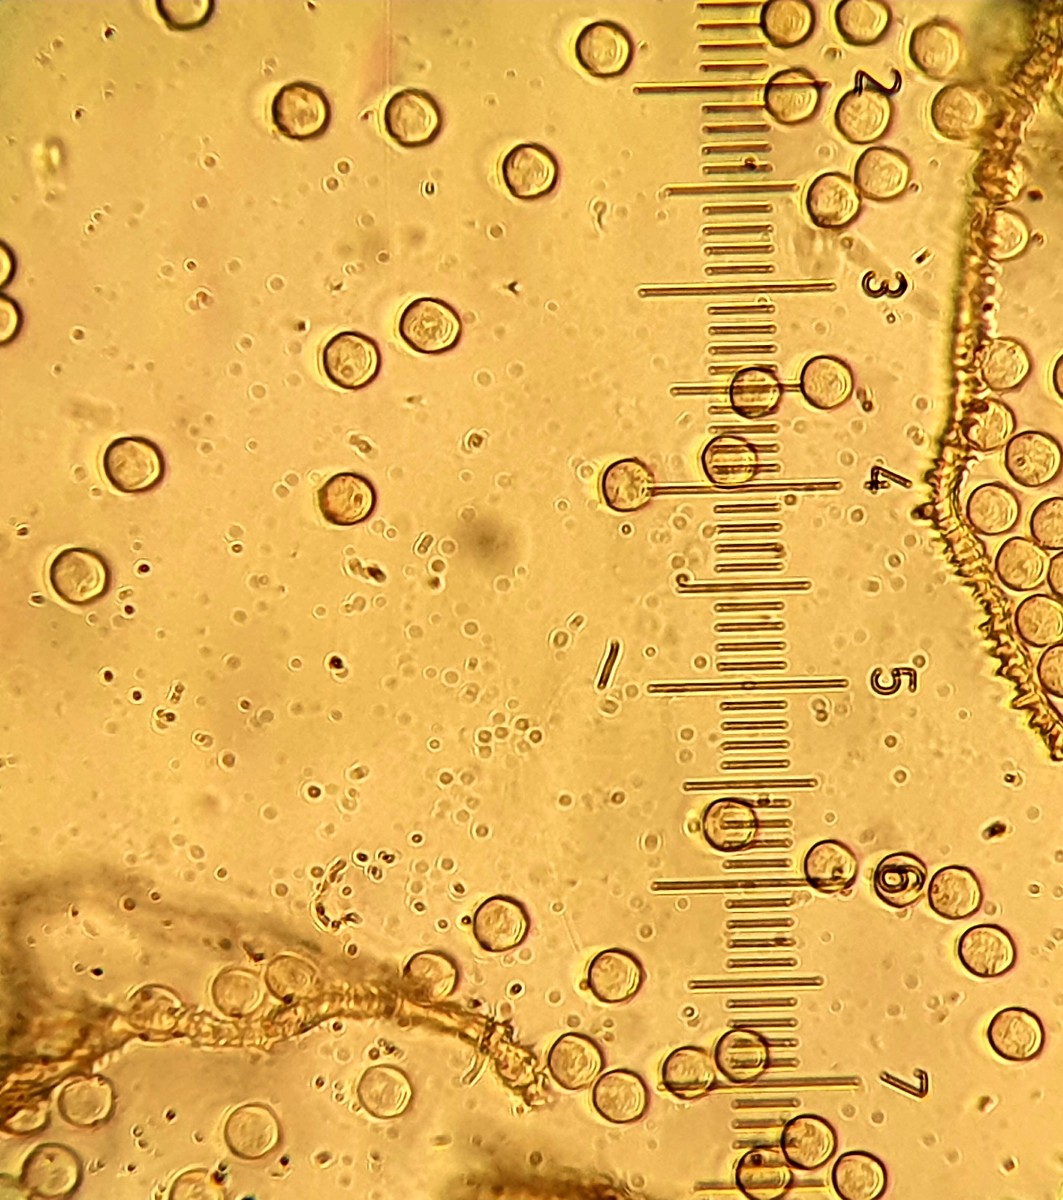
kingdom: Protozoa
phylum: Amoebozoa
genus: Arcyria
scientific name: Arcyria
